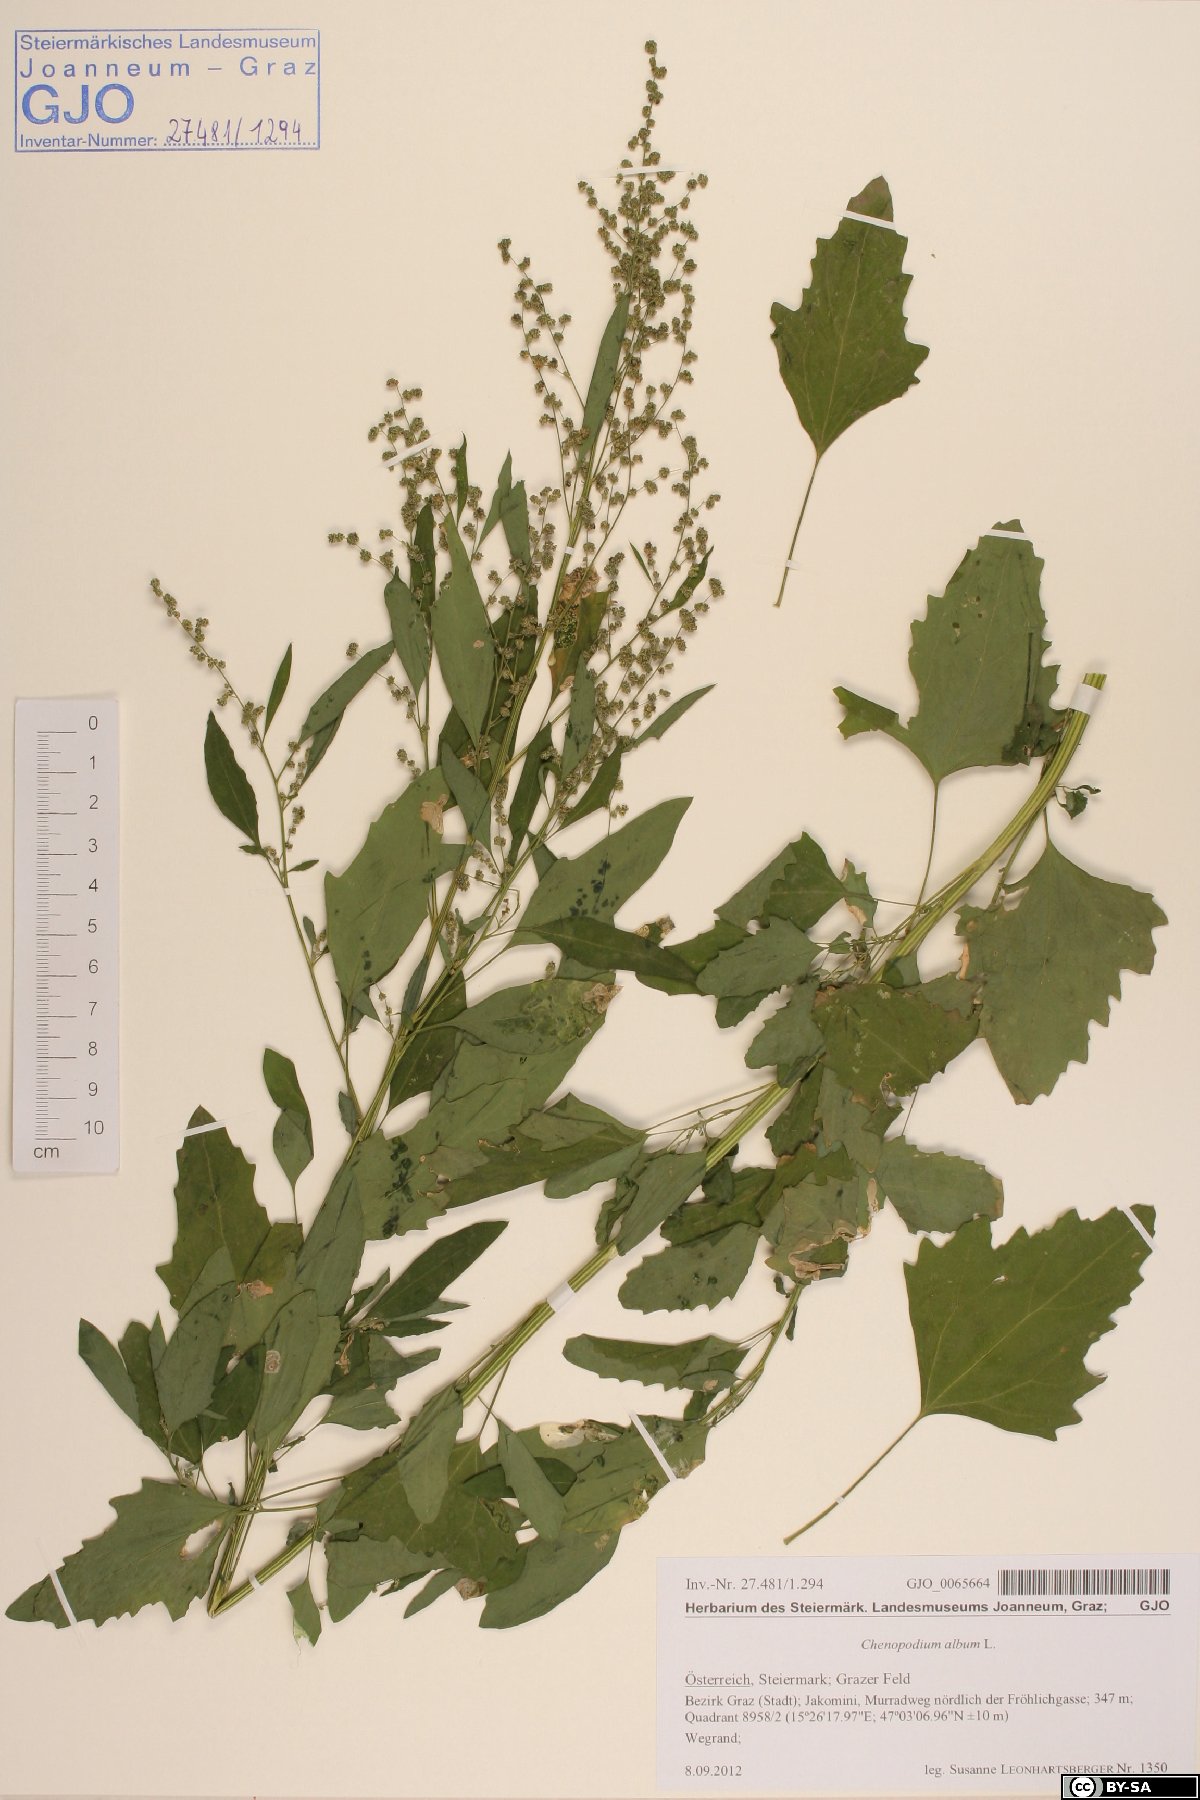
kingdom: Plantae
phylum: Tracheophyta
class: Magnoliopsida
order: Caryophyllales
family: Amaranthaceae
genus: Chenopodium
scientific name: Chenopodium album
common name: Fat-hen
